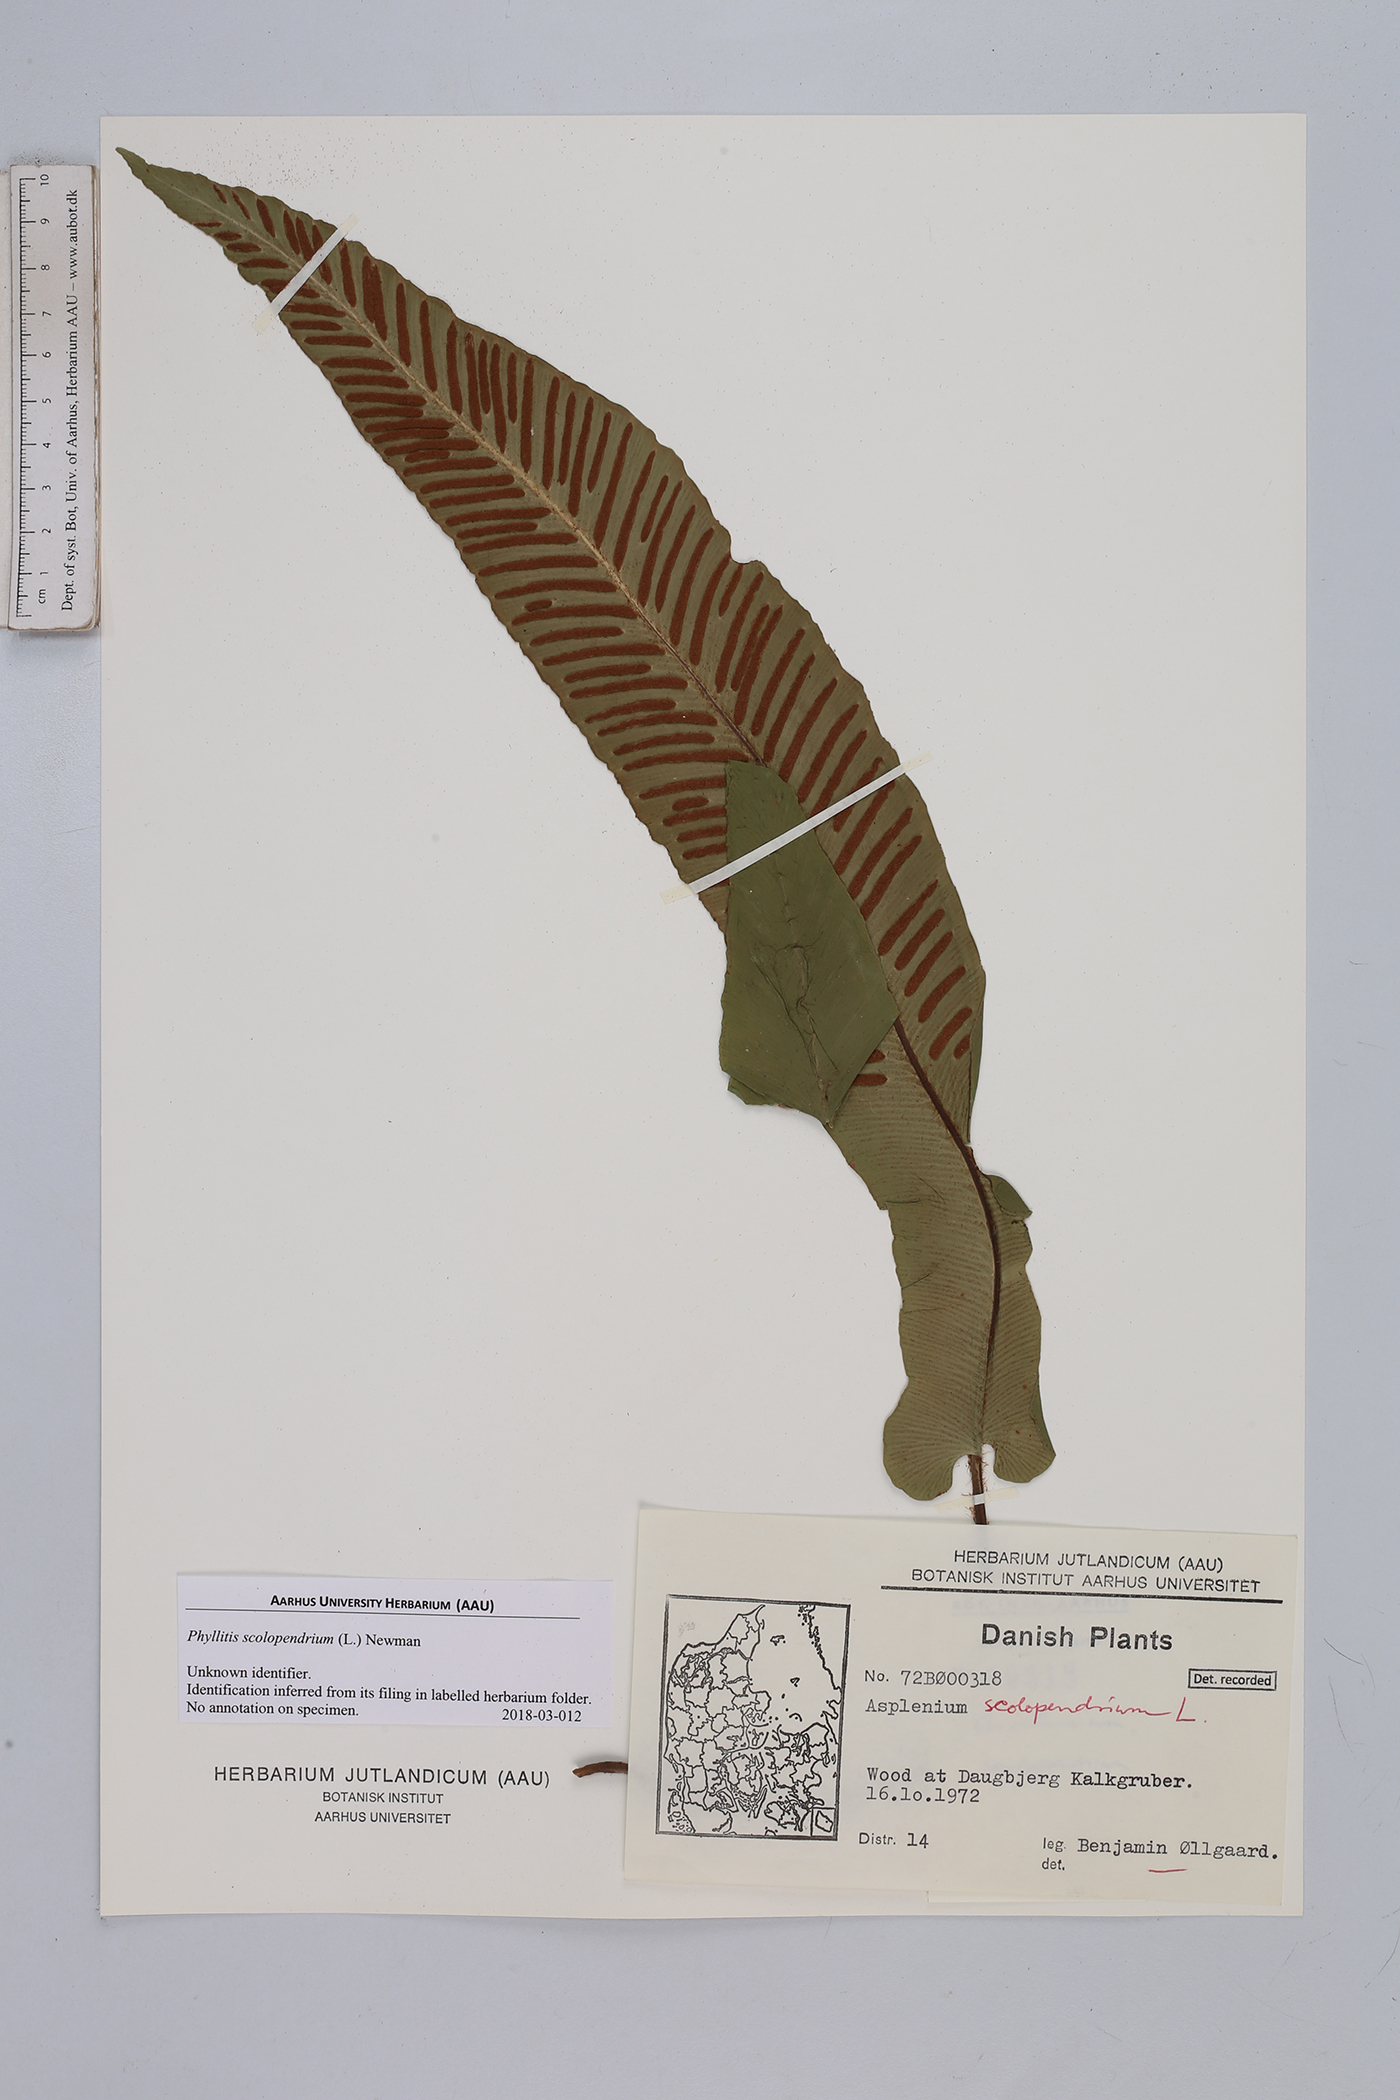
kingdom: Plantae
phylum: Tracheophyta
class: Polypodiopsida
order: Polypodiales
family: Aspleniaceae
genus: Asplenium
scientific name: Asplenium scolopendrium
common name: Hart's-tongue fern
